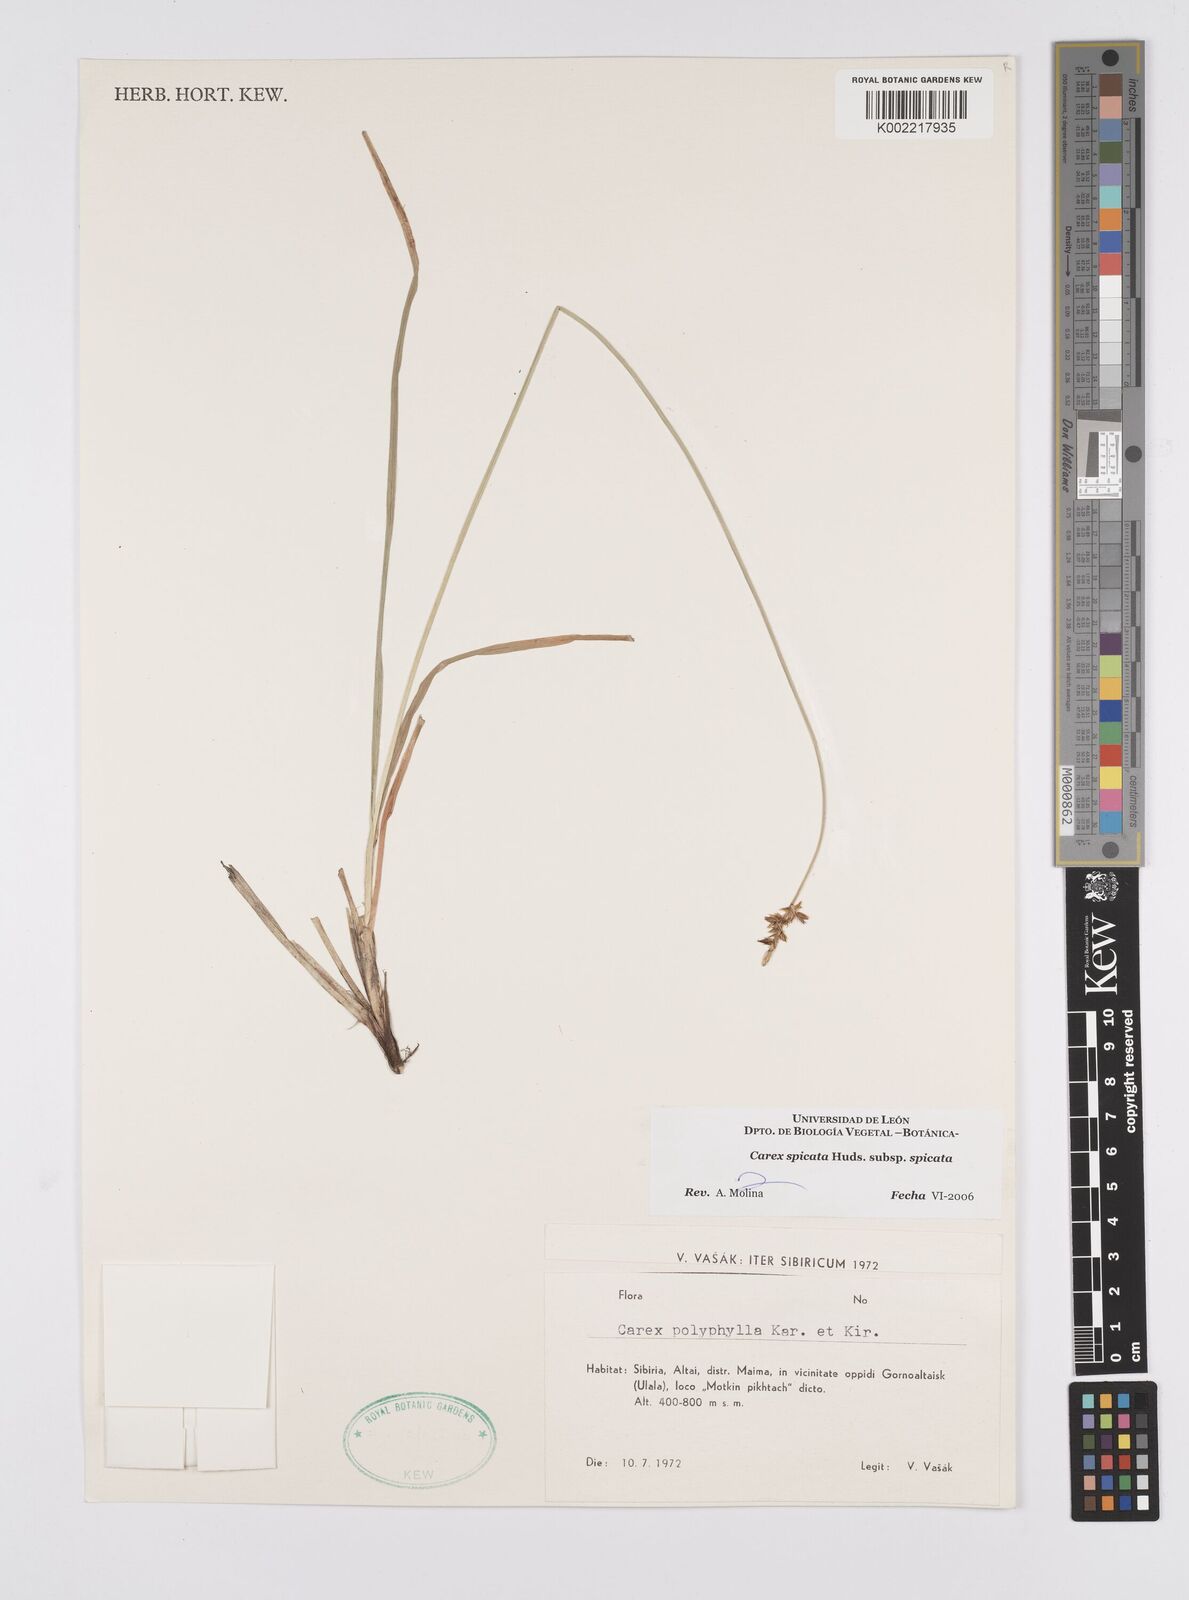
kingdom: Plantae
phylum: Tracheophyta
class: Liliopsida
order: Poales
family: Cyperaceae
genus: Carex
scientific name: Carex spicata
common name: Spiked sedge
